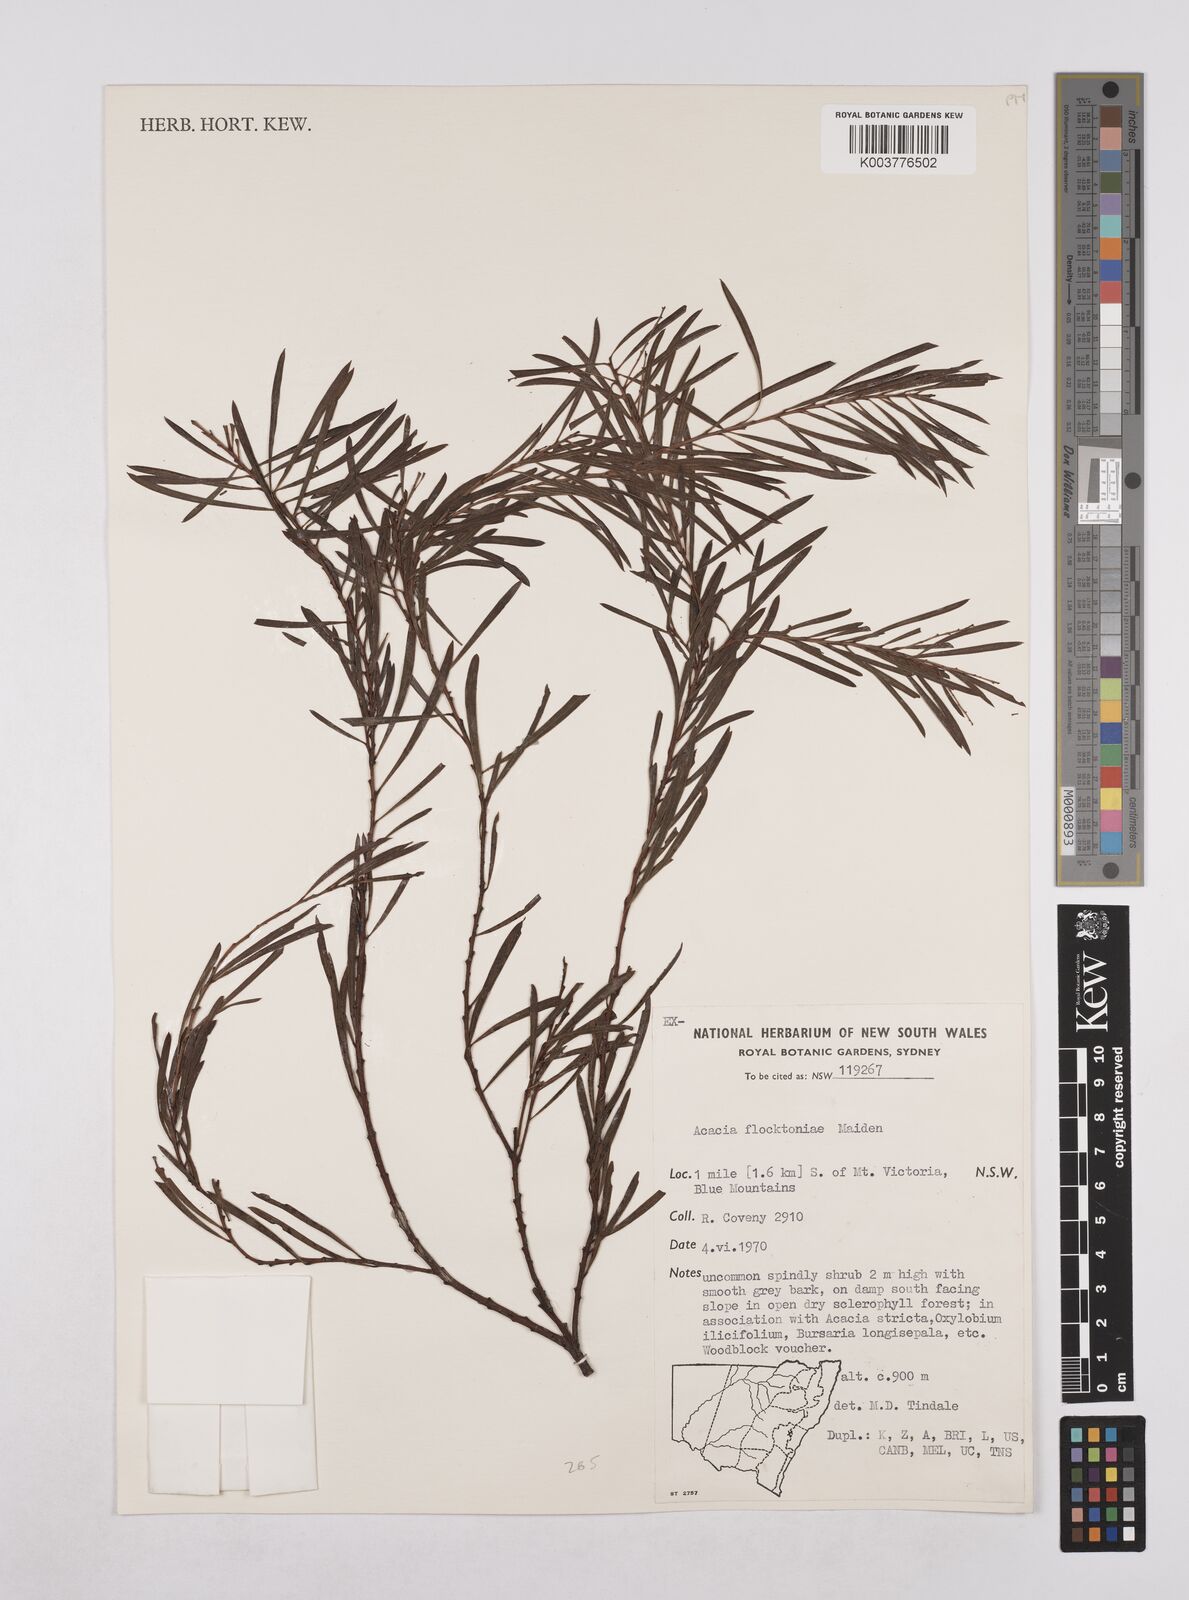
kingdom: Plantae
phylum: Tracheophyta
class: Magnoliopsida
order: Fabales
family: Fabaceae
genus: Acacia
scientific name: Acacia flocktoniae
